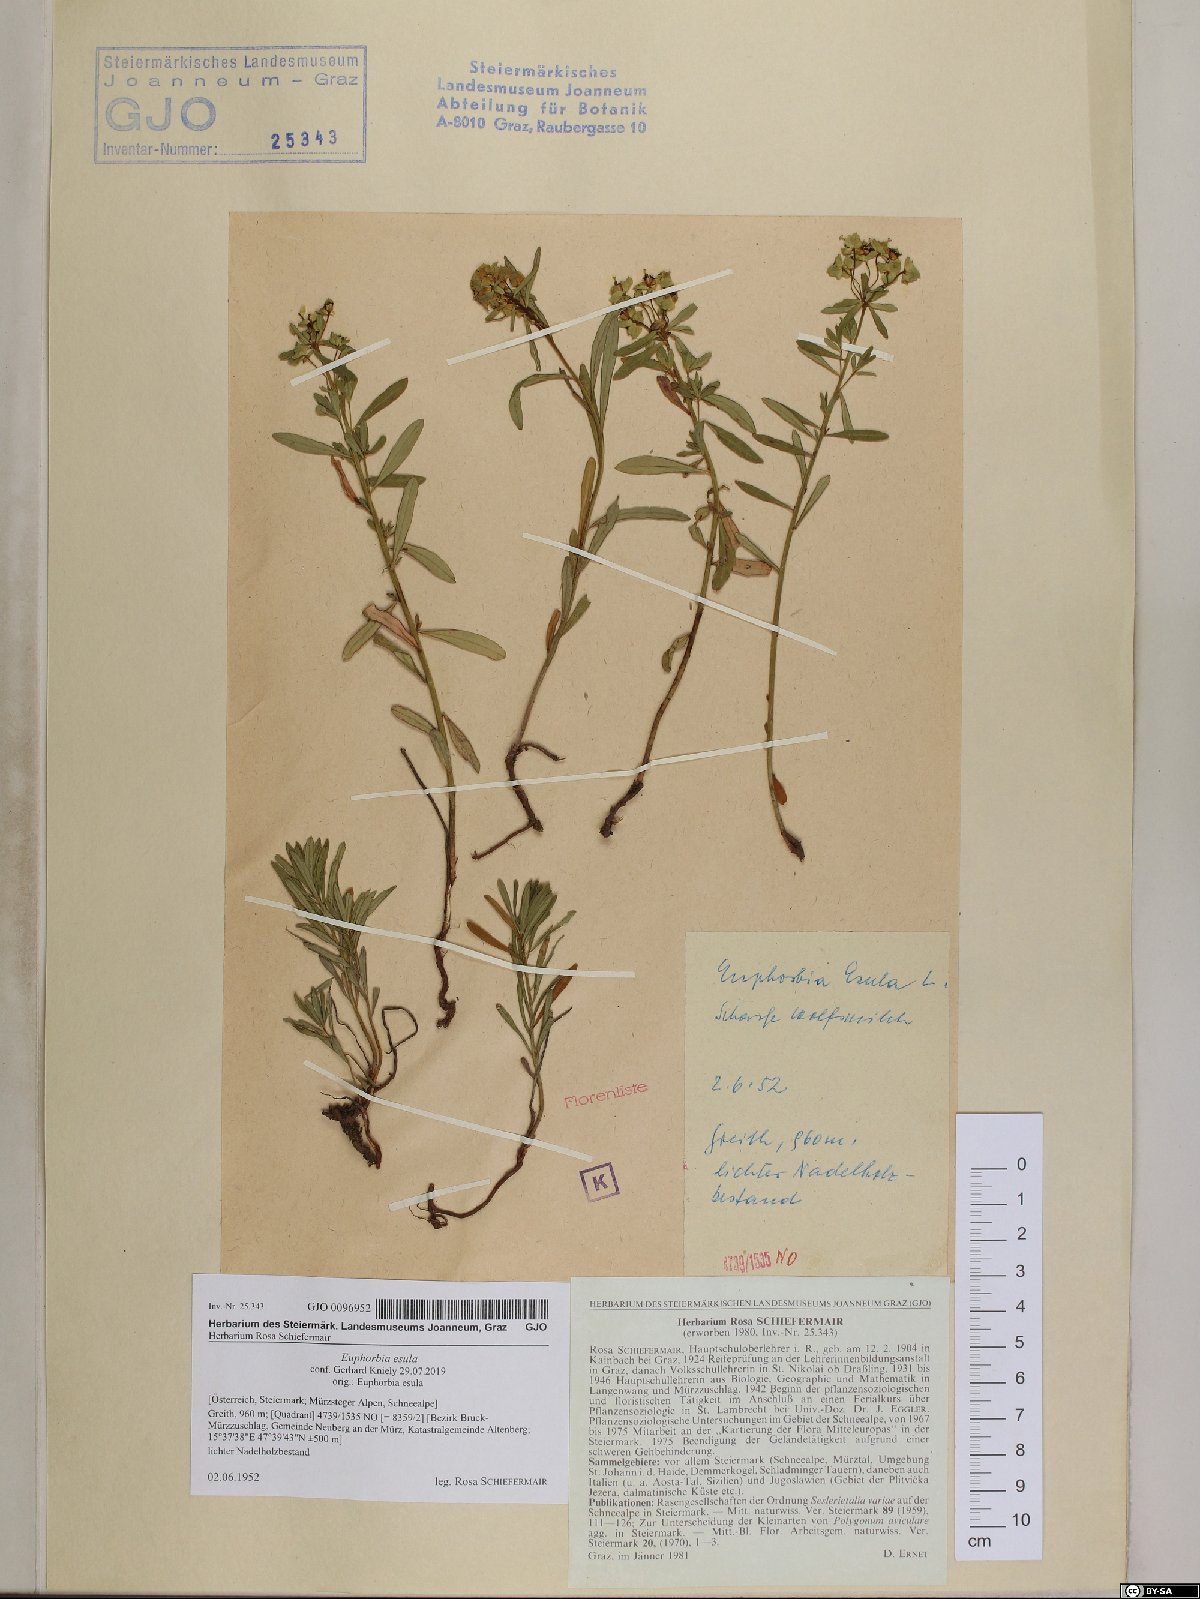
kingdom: Plantae
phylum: Tracheophyta
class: Magnoliopsida
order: Malpighiales
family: Euphorbiaceae
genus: Euphorbia
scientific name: Euphorbia esula
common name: Leafy spurge
